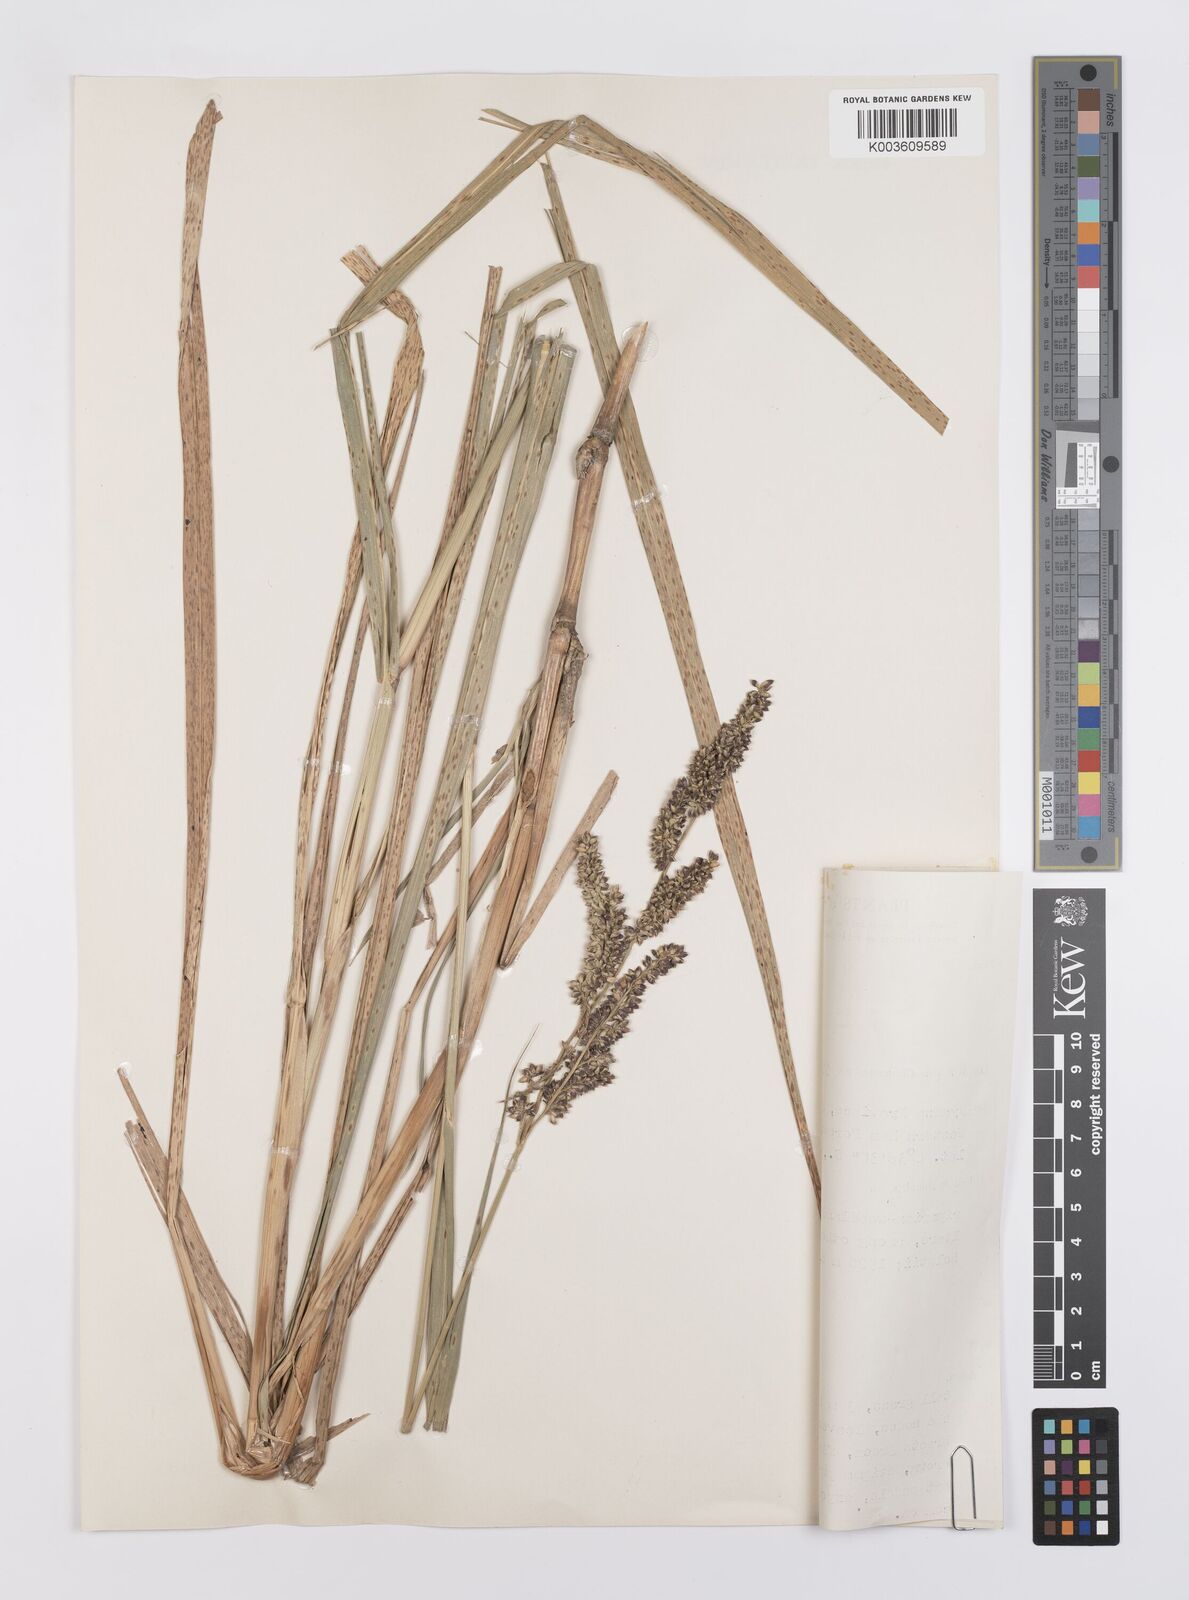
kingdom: Plantae
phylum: Tracheophyta
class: Liliopsida
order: Poales
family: Poaceae
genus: Echinochloa
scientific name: Echinochloa pyramidalis
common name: Antelope grass
